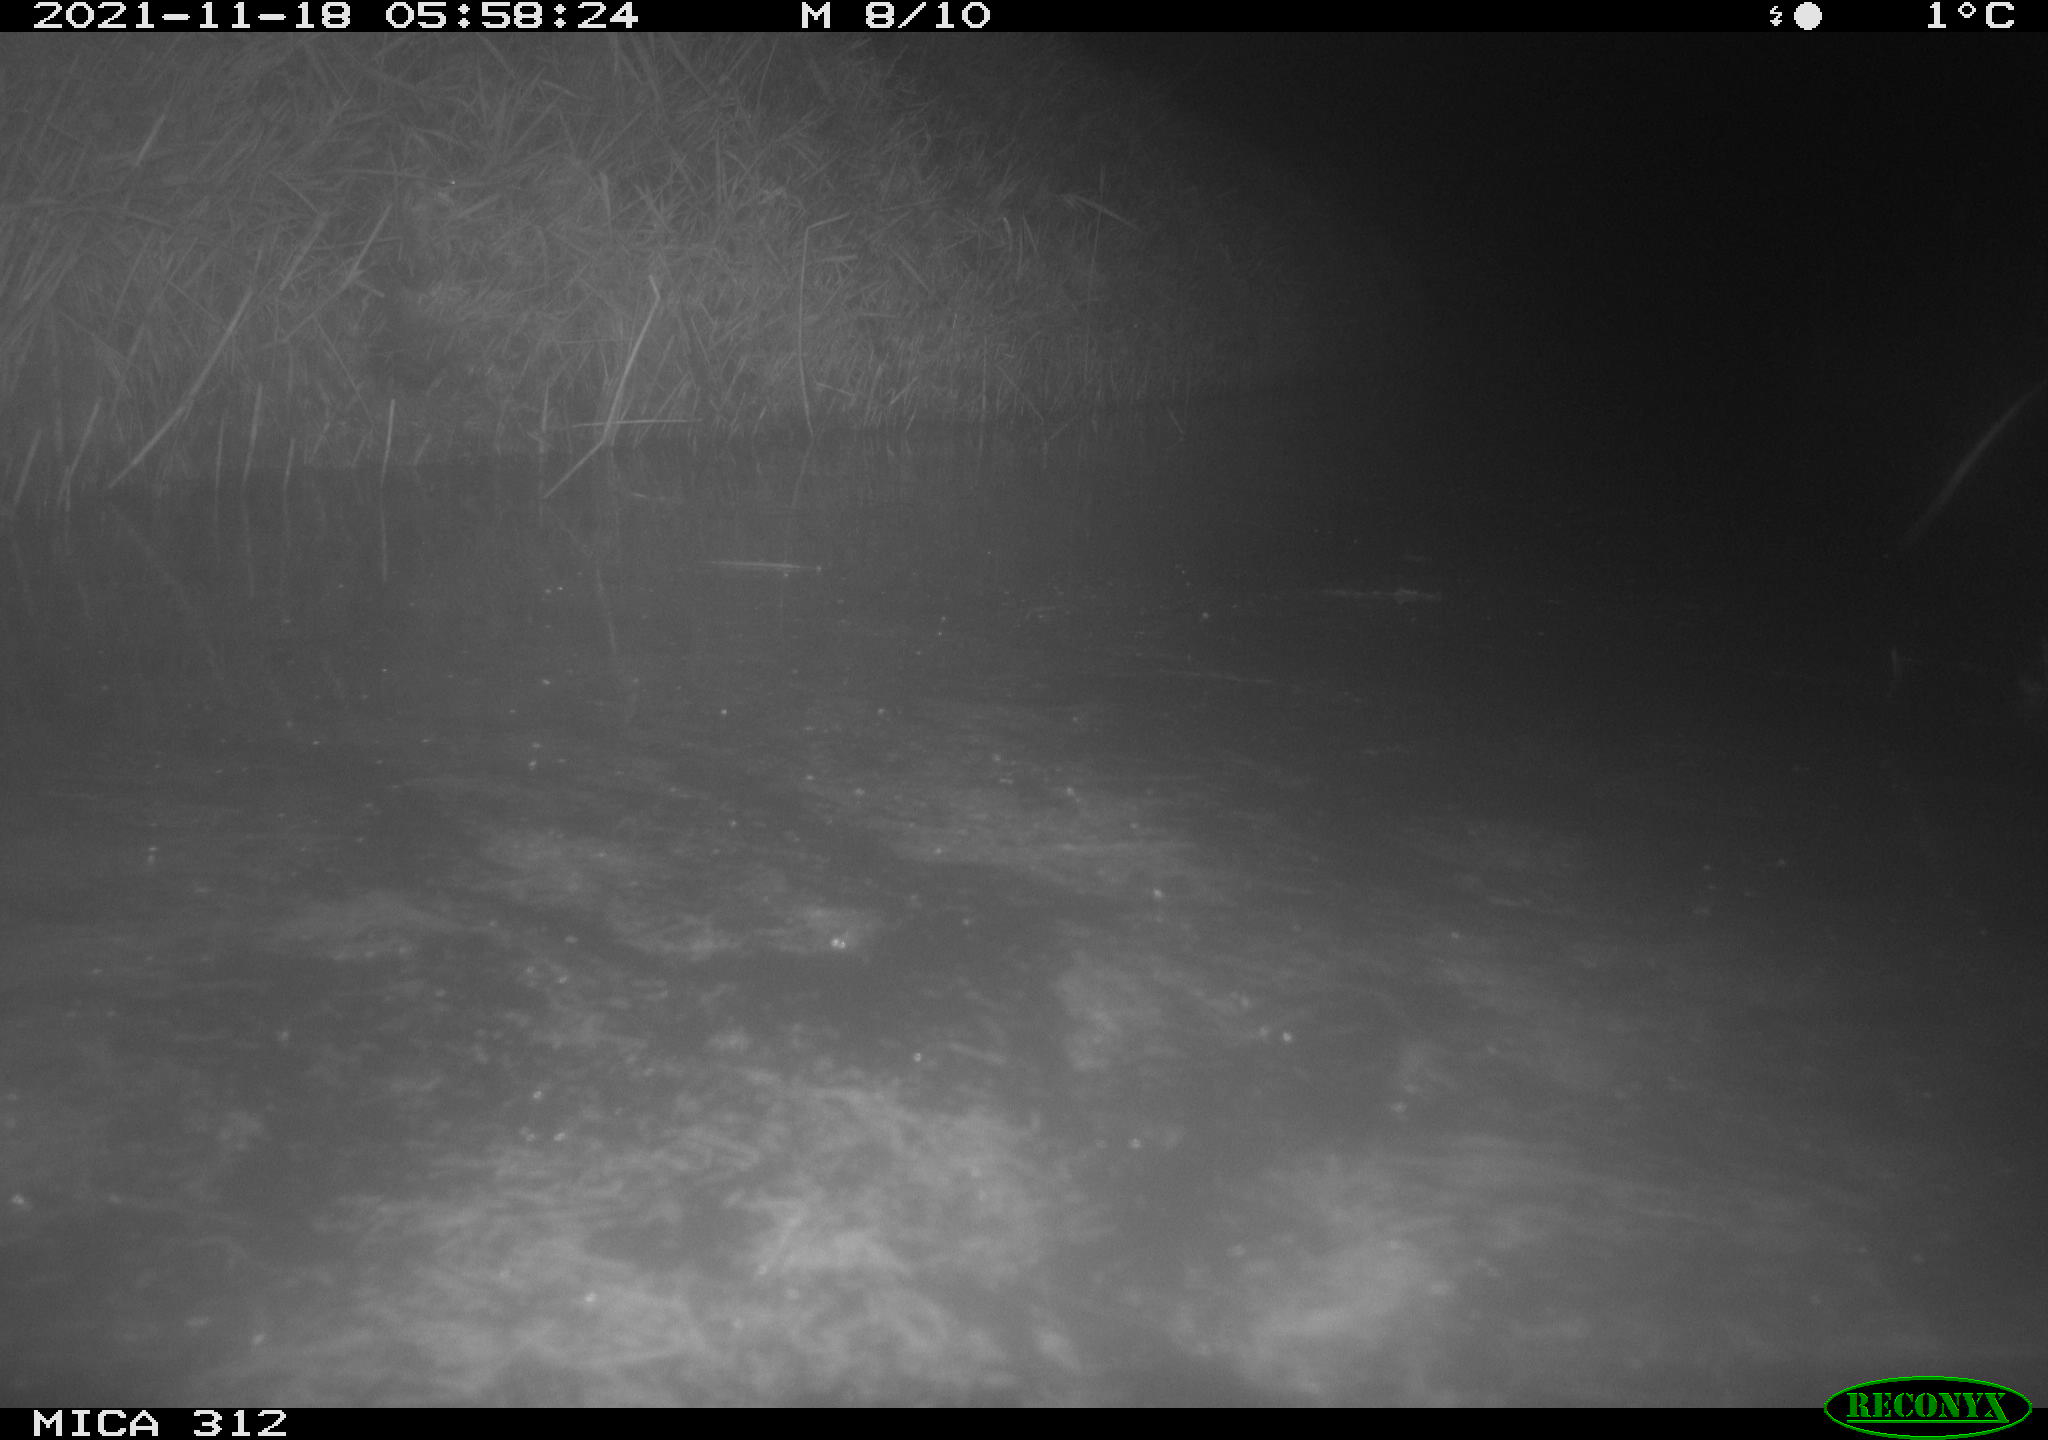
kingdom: Animalia
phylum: Chordata
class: Mammalia
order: Rodentia
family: Muridae
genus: Rattus
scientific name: Rattus norvegicus
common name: Brown rat
